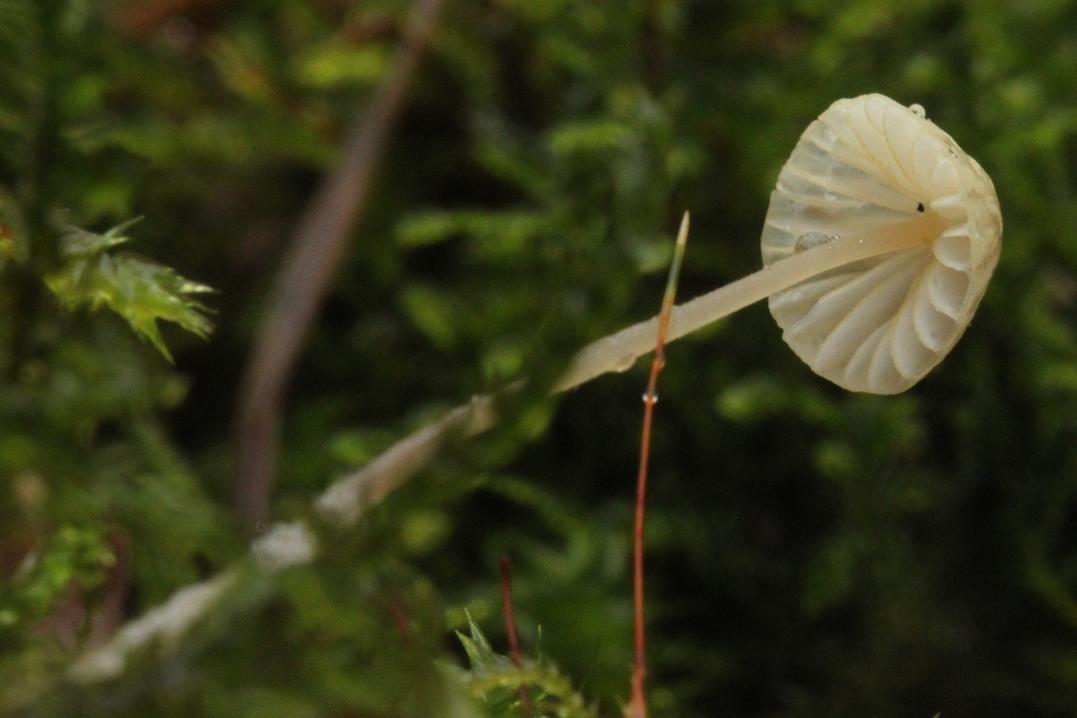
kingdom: Fungi
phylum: Basidiomycota
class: Agaricomycetes
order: Agaricales
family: Mycenaceae
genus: Mycena
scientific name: Mycena citrinomarginata
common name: gulægget huesvamp
